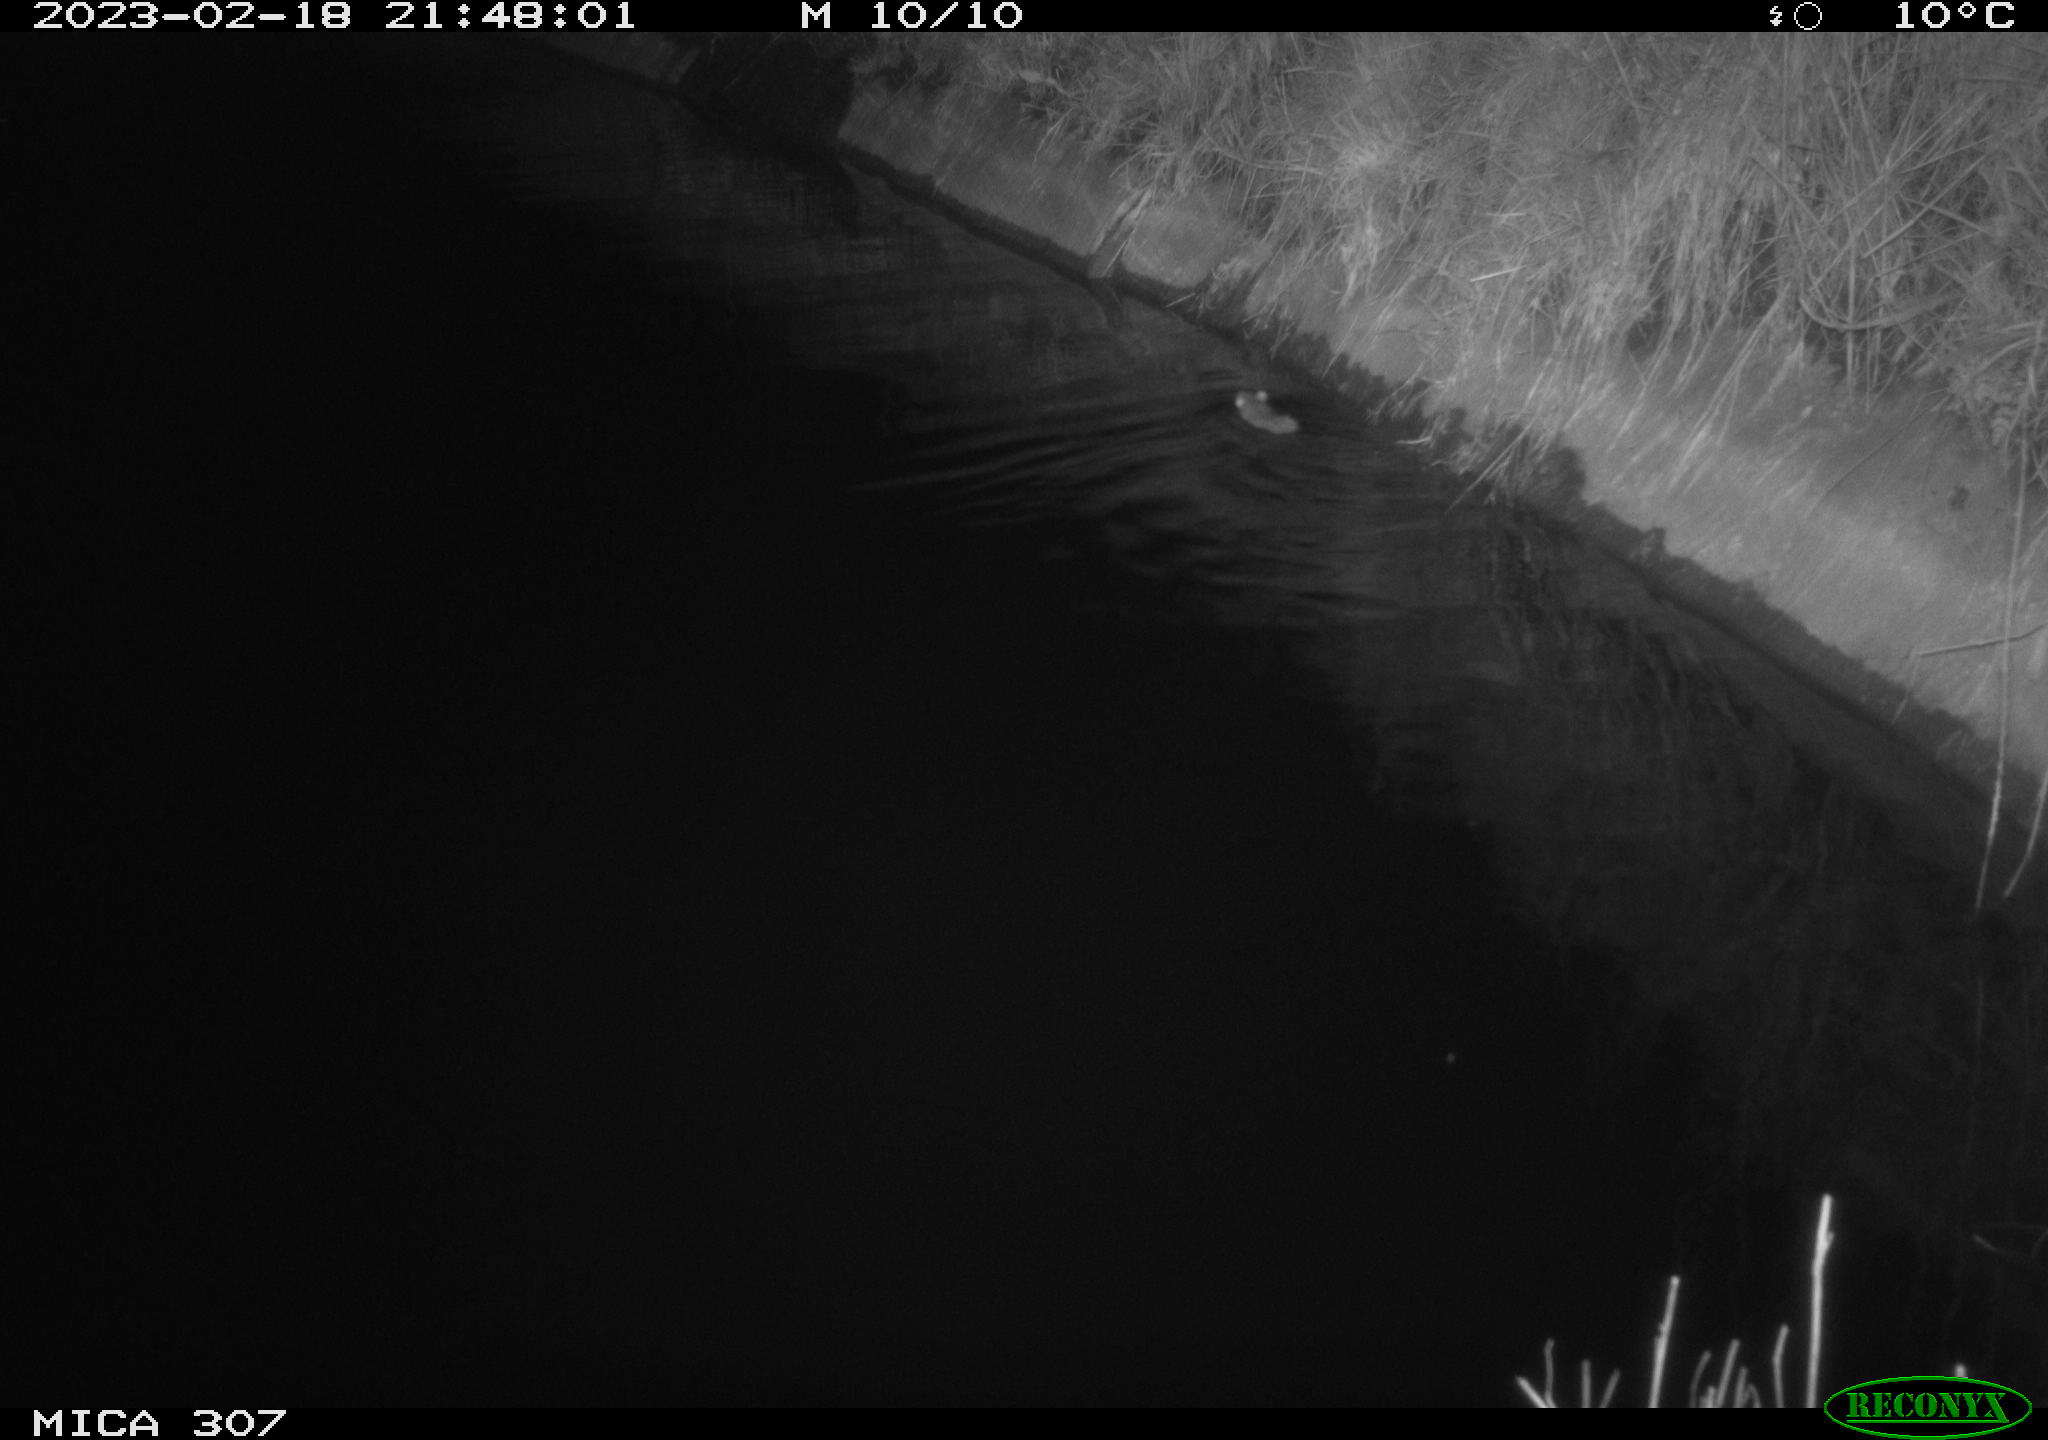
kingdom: Animalia
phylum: Chordata
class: Mammalia
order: Rodentia
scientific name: Rodentia
